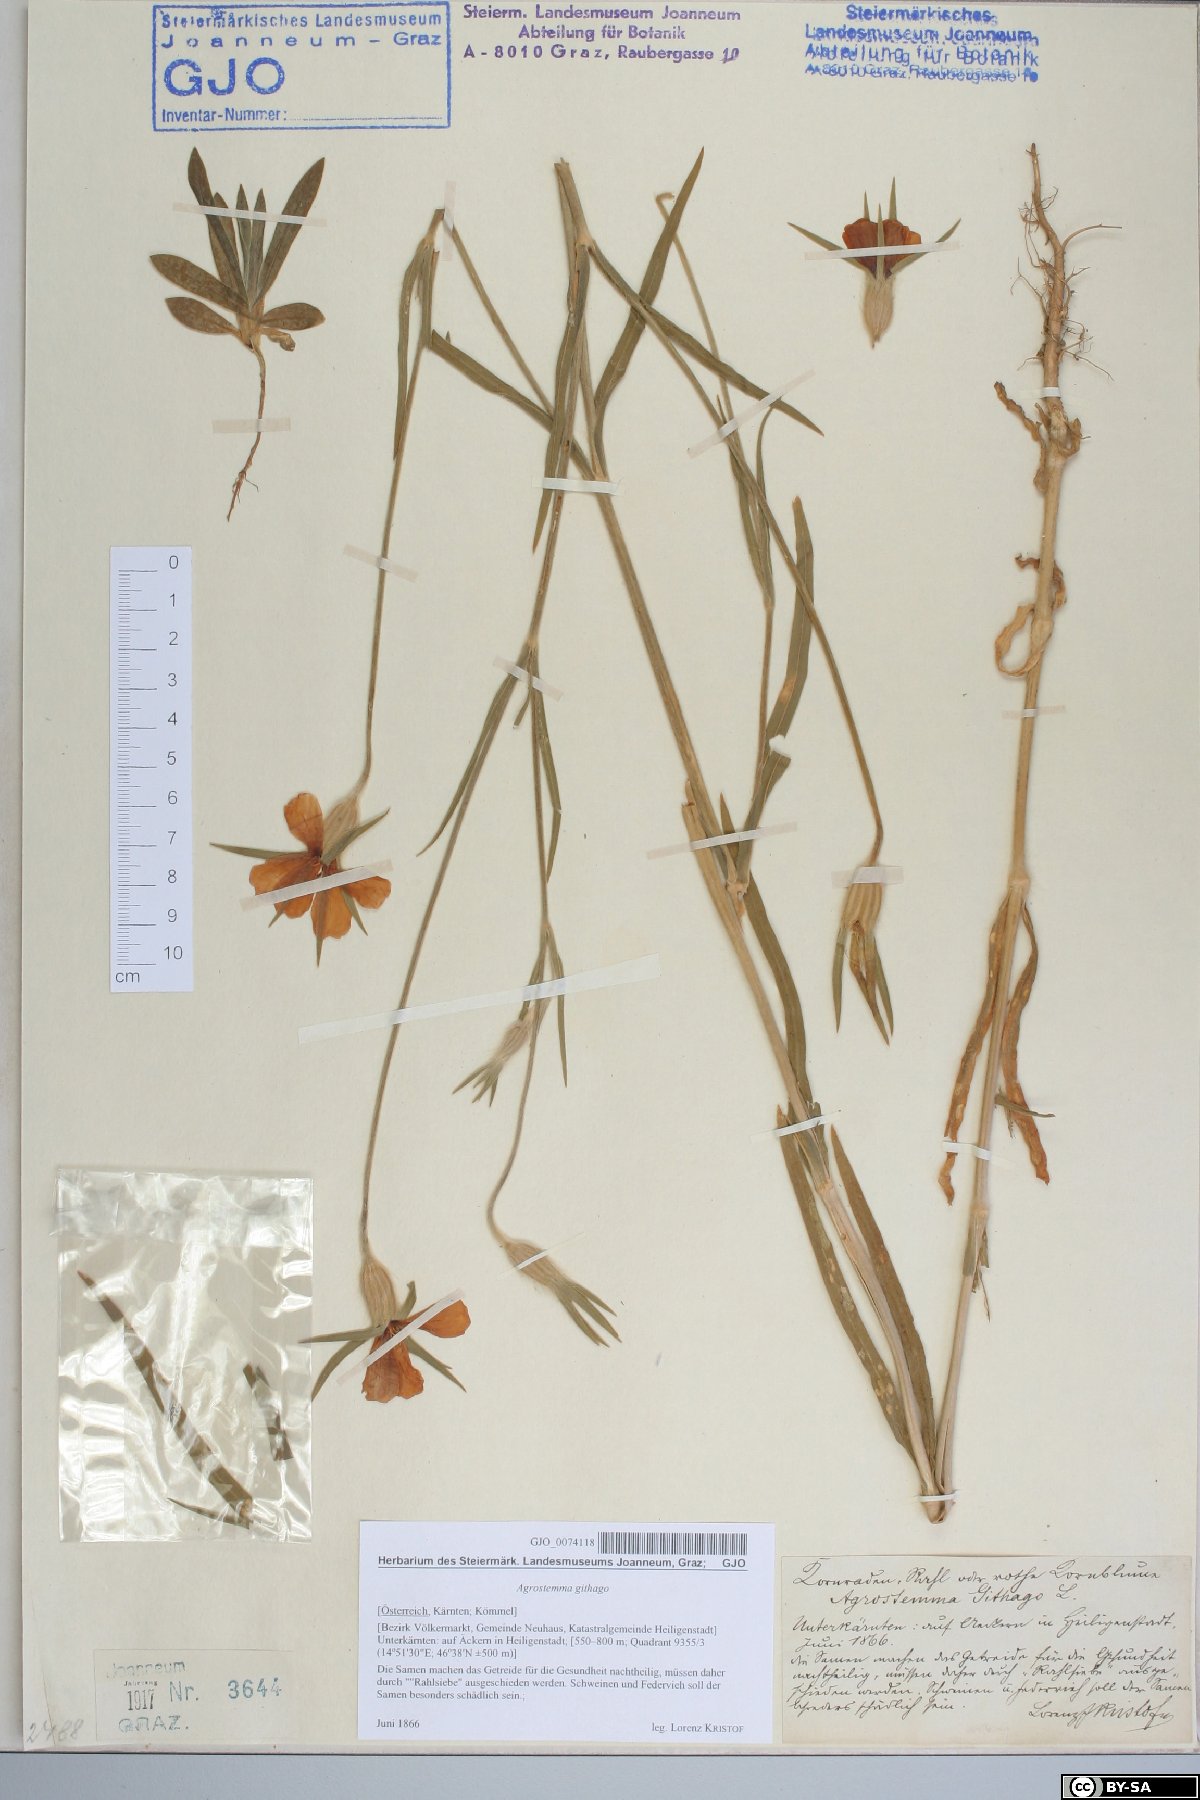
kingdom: Plantae
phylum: Tracheophyta
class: Magnoliopsida
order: Caryophyllales
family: Caryophyllaceae
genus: Agrostemma
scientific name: Agrostemma githago
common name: Common corncockle
